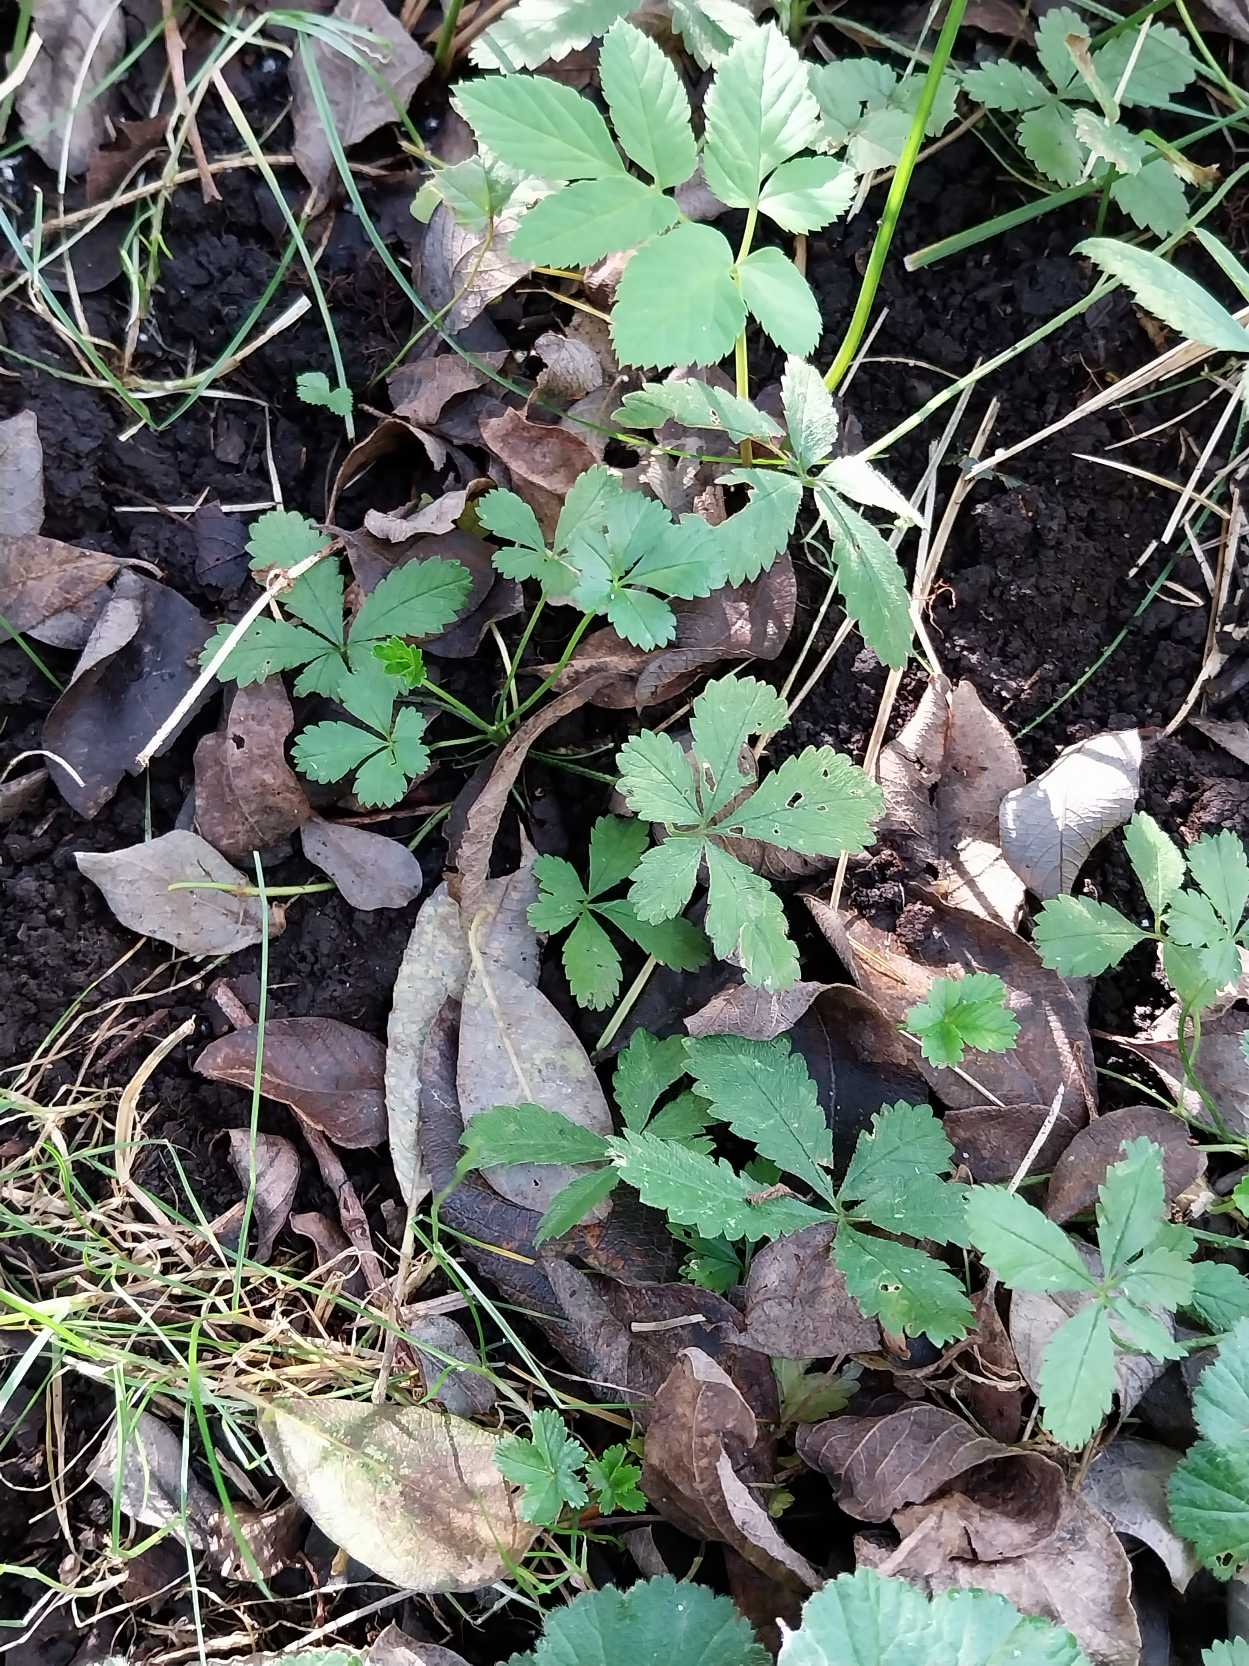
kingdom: Plantae
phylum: Tracheophyta
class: Magnoliopsida
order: Rosales
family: Rosaceae
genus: Potentilla
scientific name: Potentilla reptans
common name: Krybende potentil
